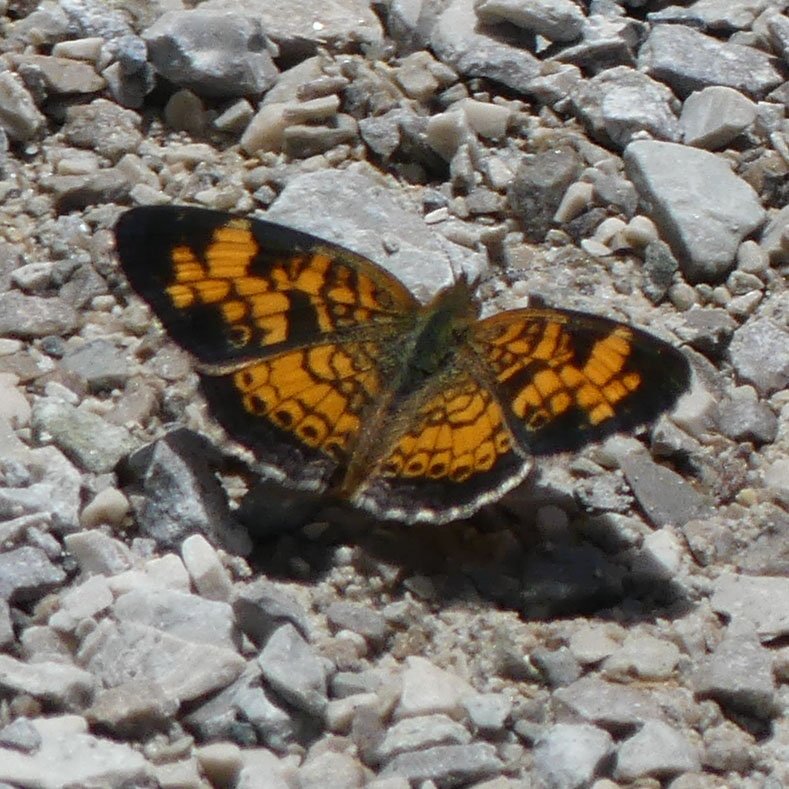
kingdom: Animalia
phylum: Arthropoda
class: Insecta
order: Lepidoptera
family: Nymphalidae
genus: Phyciodes
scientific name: Phyciodes tharos
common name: Pearl Crescent
